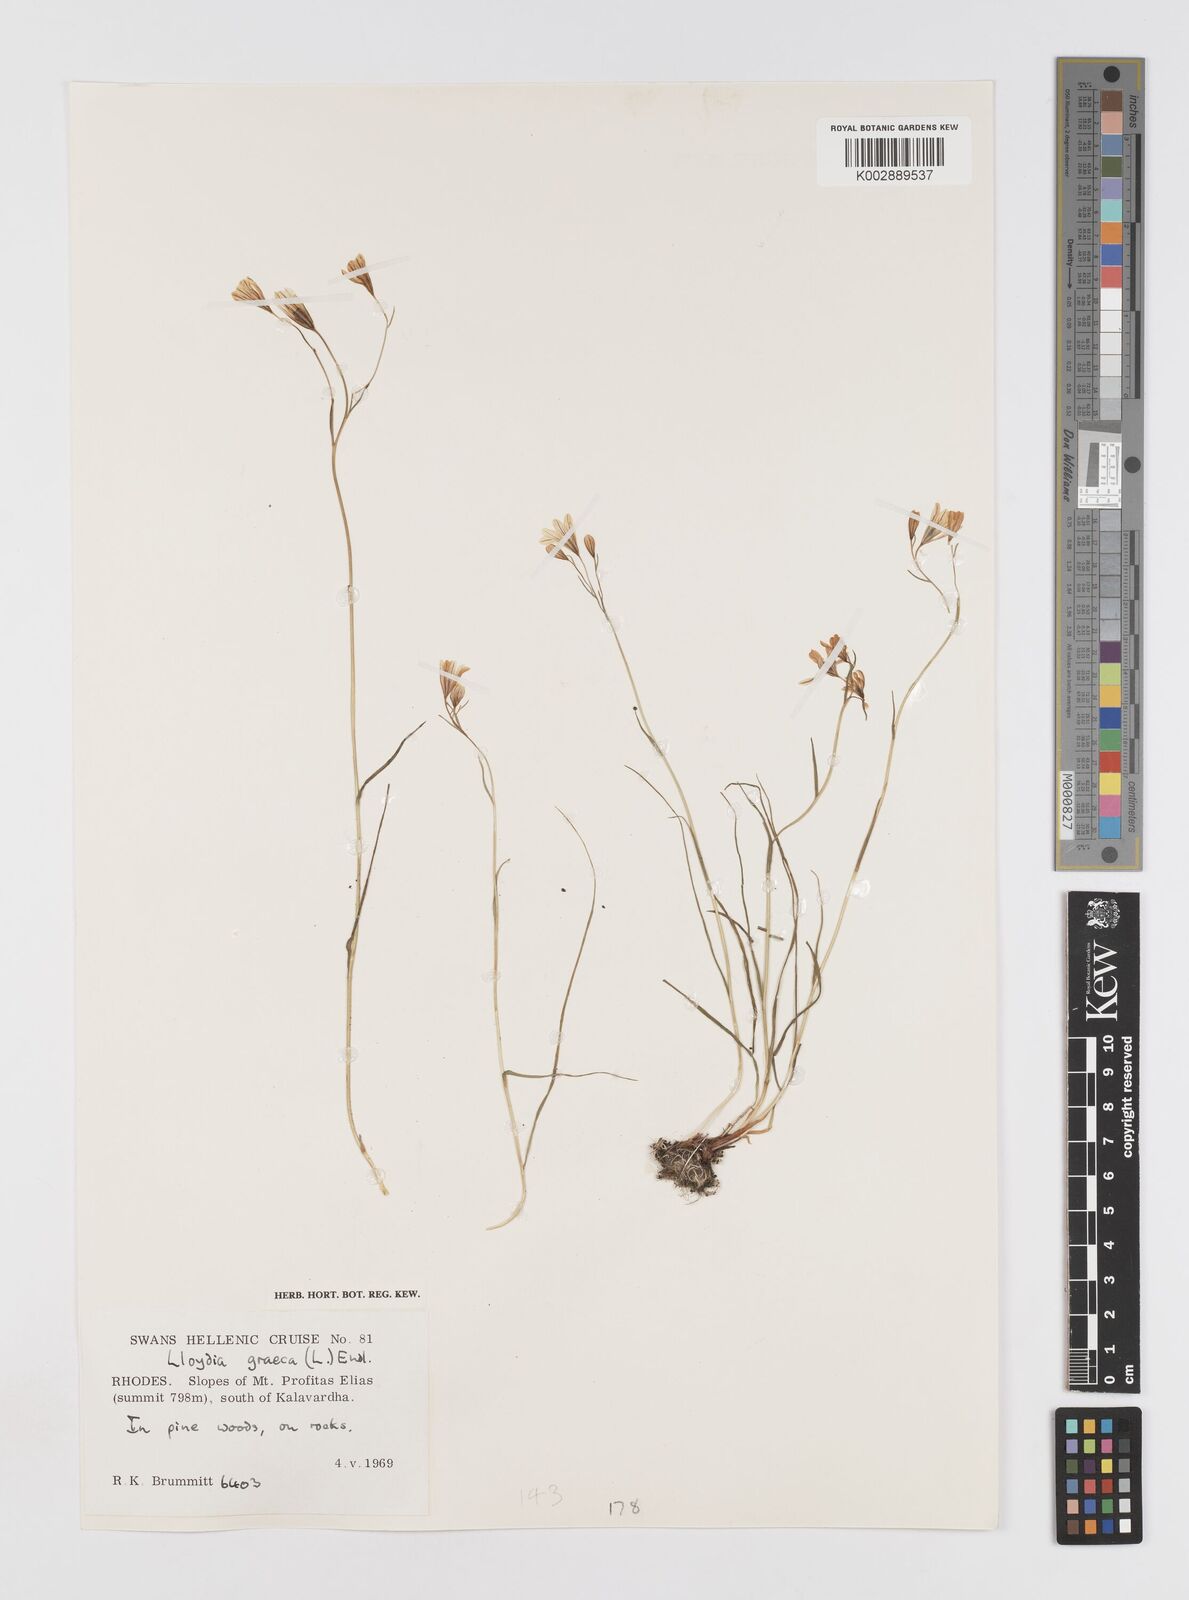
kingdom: Plantae
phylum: Tracheophyta
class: Liliopsida
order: Liliales
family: Liliaceae
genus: Gagea
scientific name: Gagea graeca
